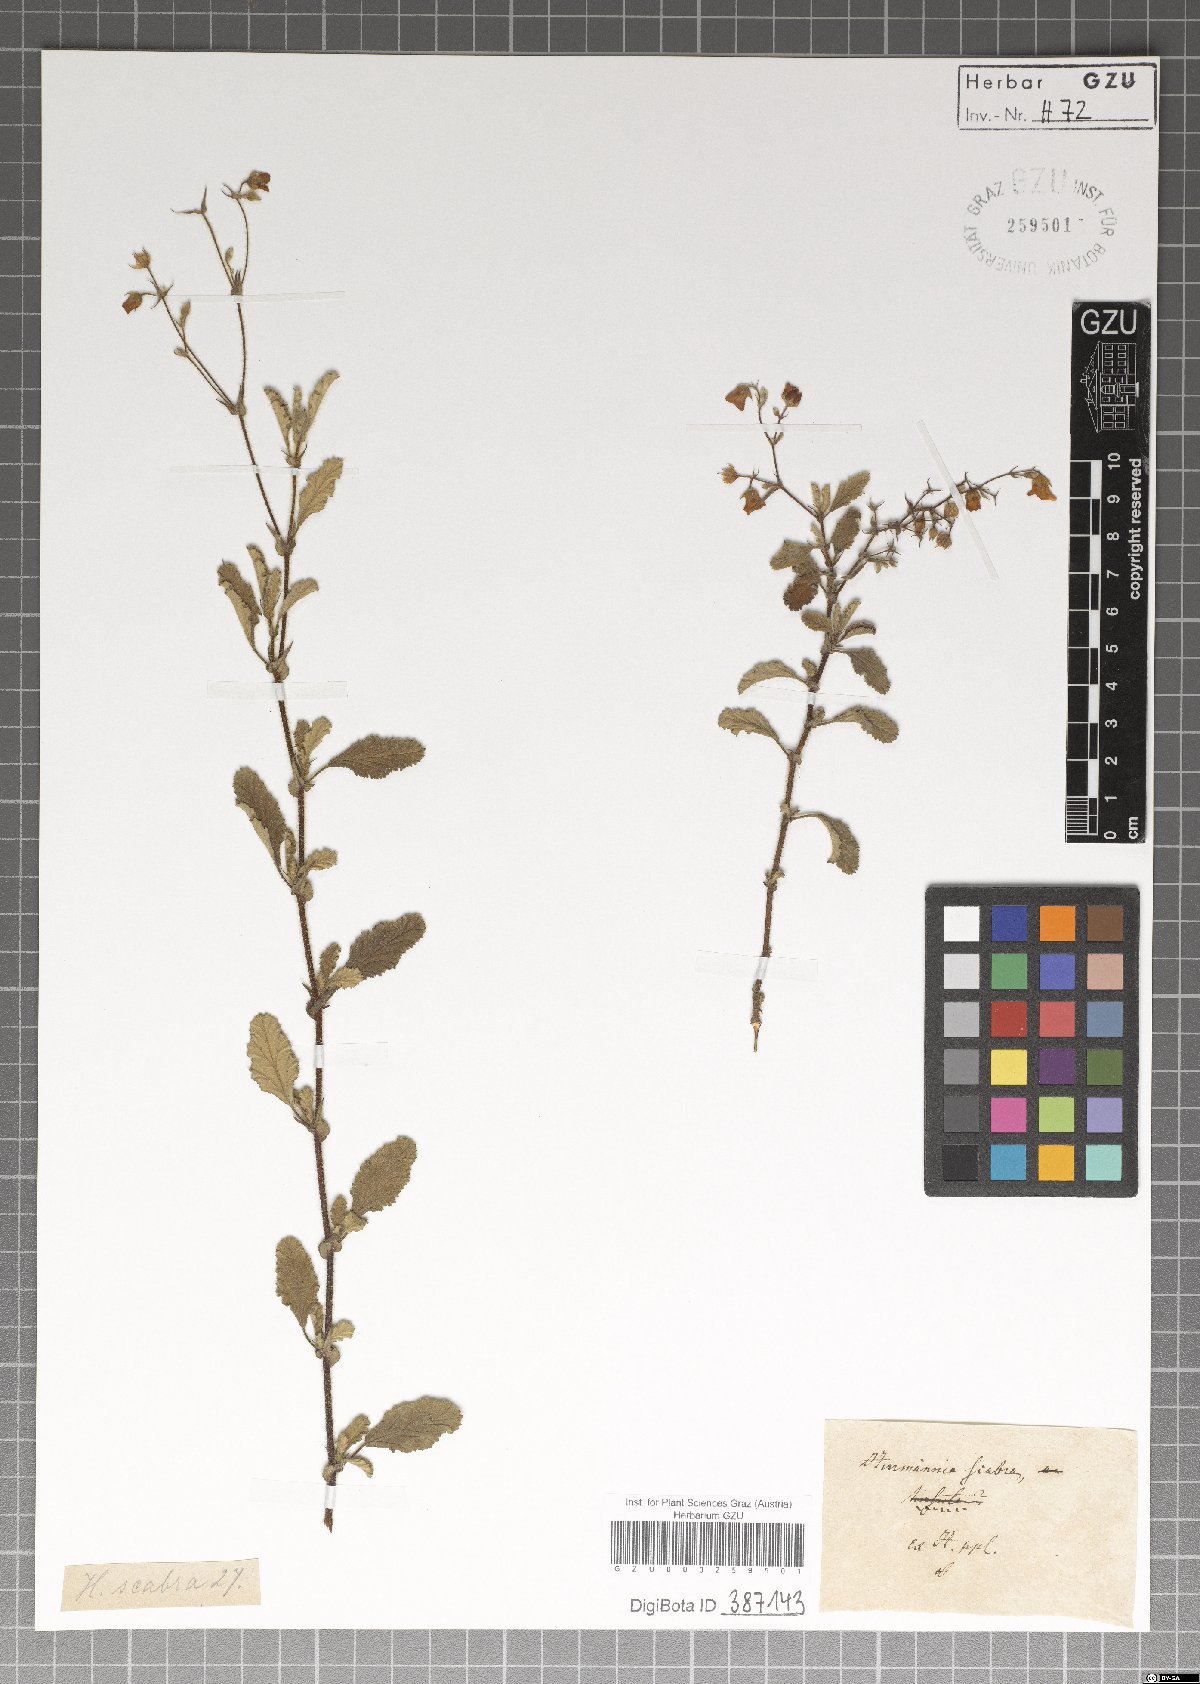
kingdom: Plantae
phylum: Tracheophyta
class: Magnoliopsida
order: Malvales
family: Malvaceae
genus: Hermannia
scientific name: Hermannia scabra
